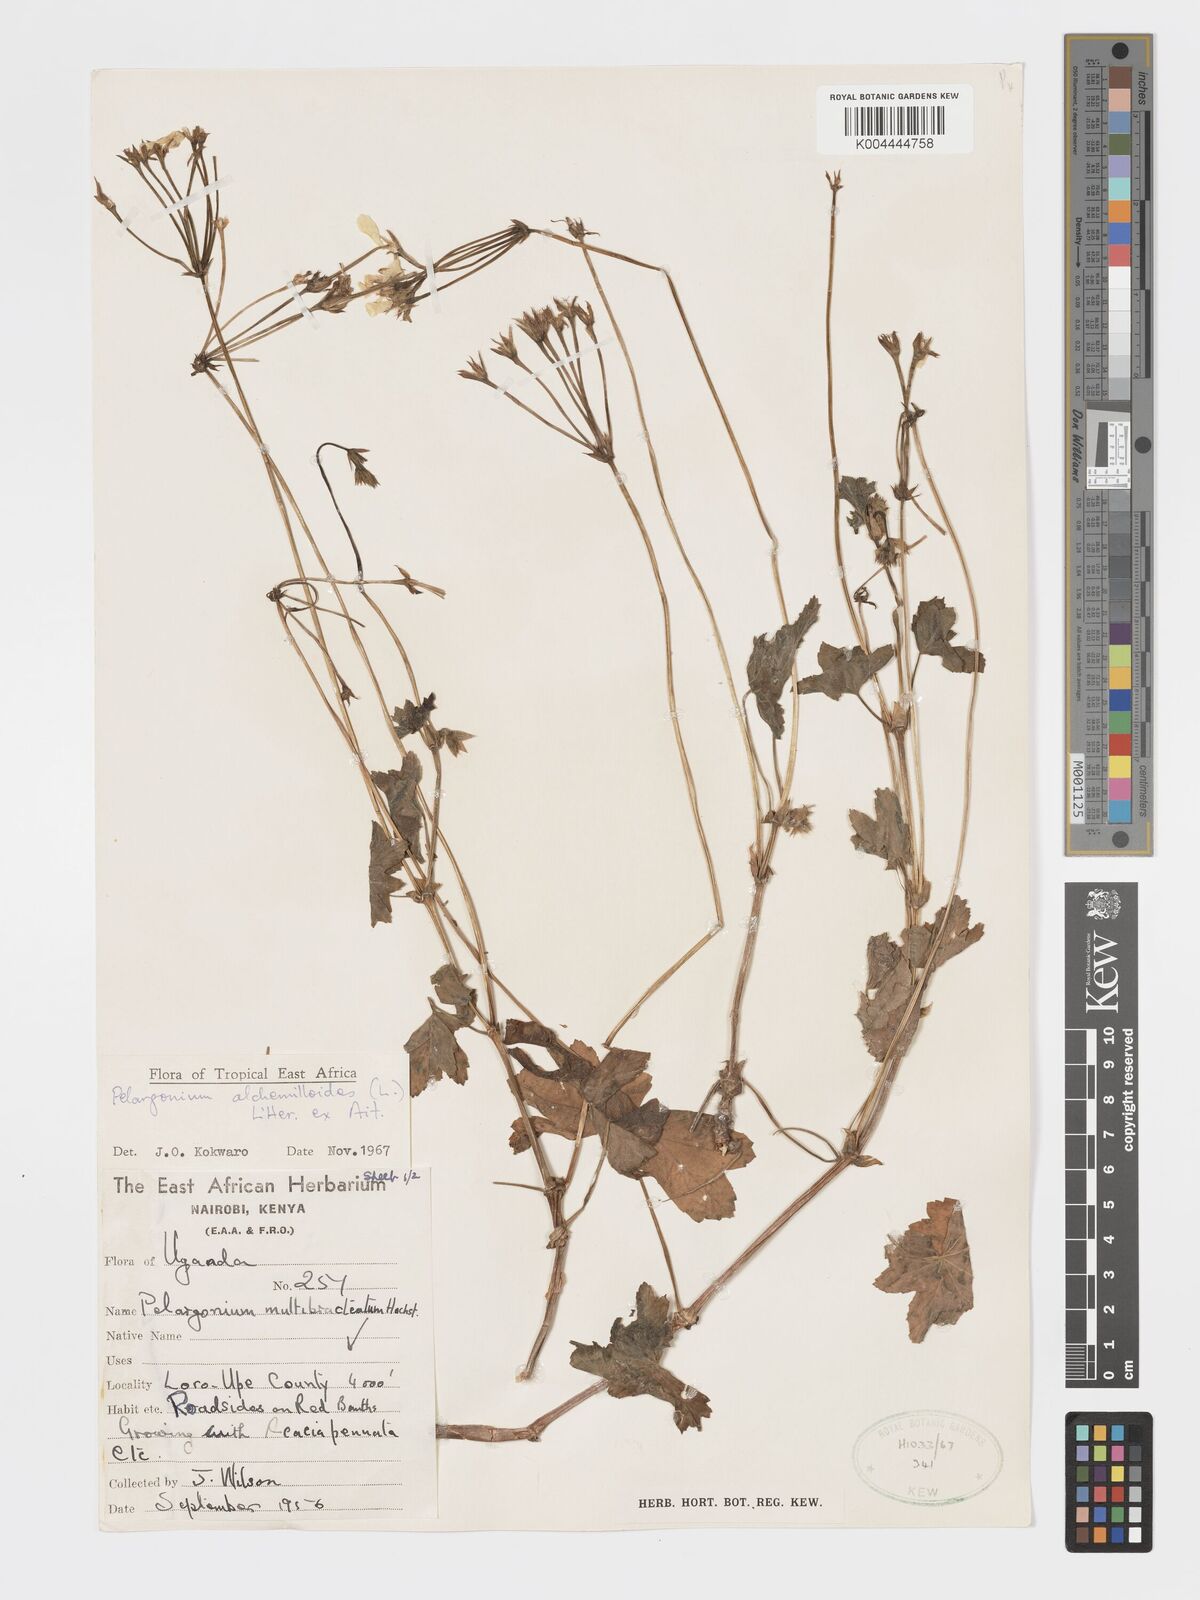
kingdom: Plantae
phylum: Tracheophyta
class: Magnoliopsida
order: Geraniales
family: Geraniaceae
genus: Pelargonium
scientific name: Pelargonium alchemilloides
